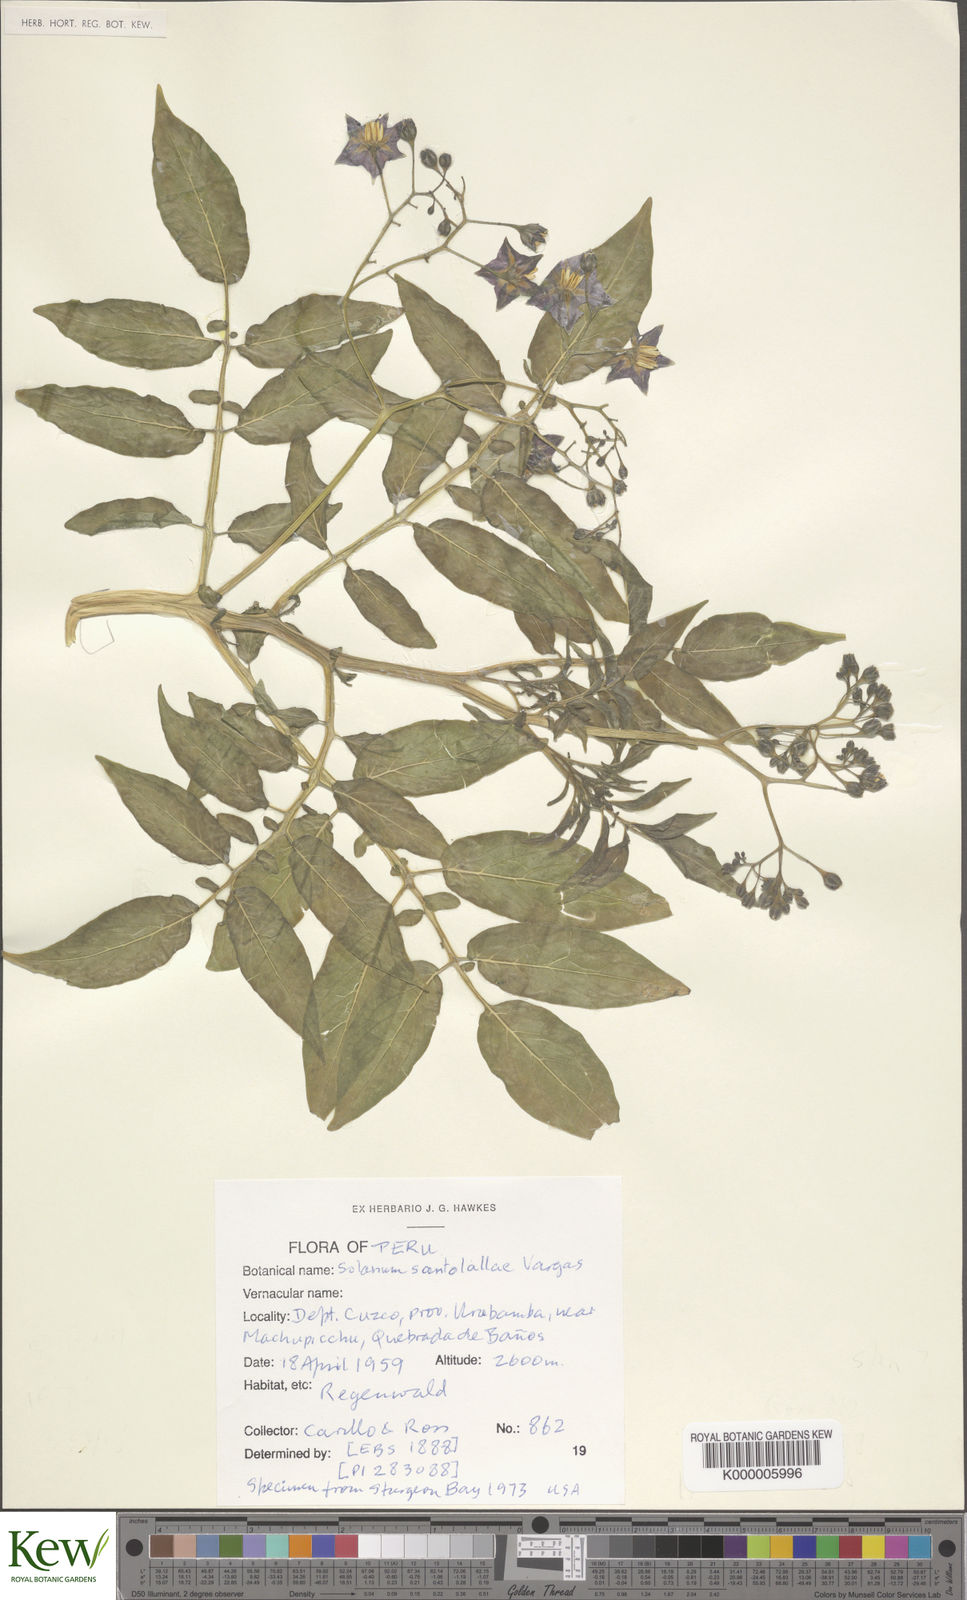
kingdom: Plantae
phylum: Tracheophyta
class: Magnoliopsida
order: Solanales
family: Solanaceae
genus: Solanum
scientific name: Solanum laxissimum
